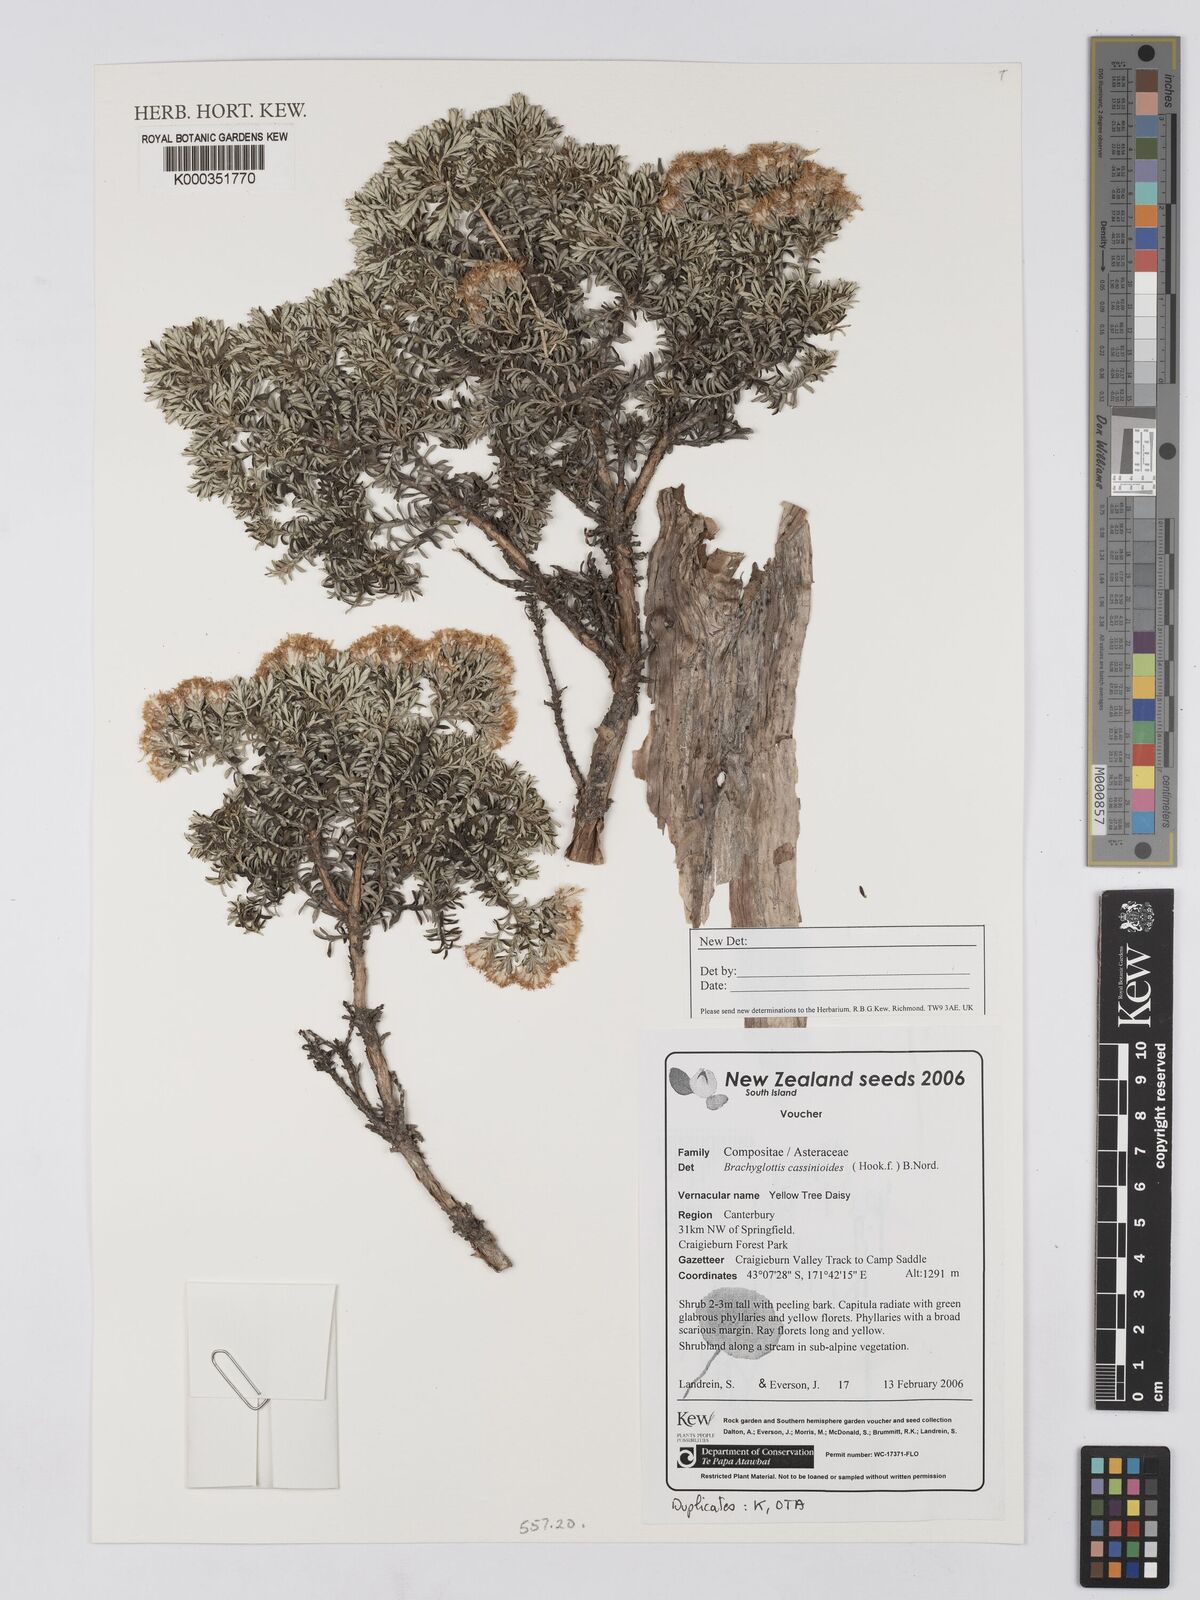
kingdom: Plantae
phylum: Tracheophyta
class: Magnoliopsida
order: Asterales
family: Asteraceae
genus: Brachyglottis
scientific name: Brachyglottis cassinioides
